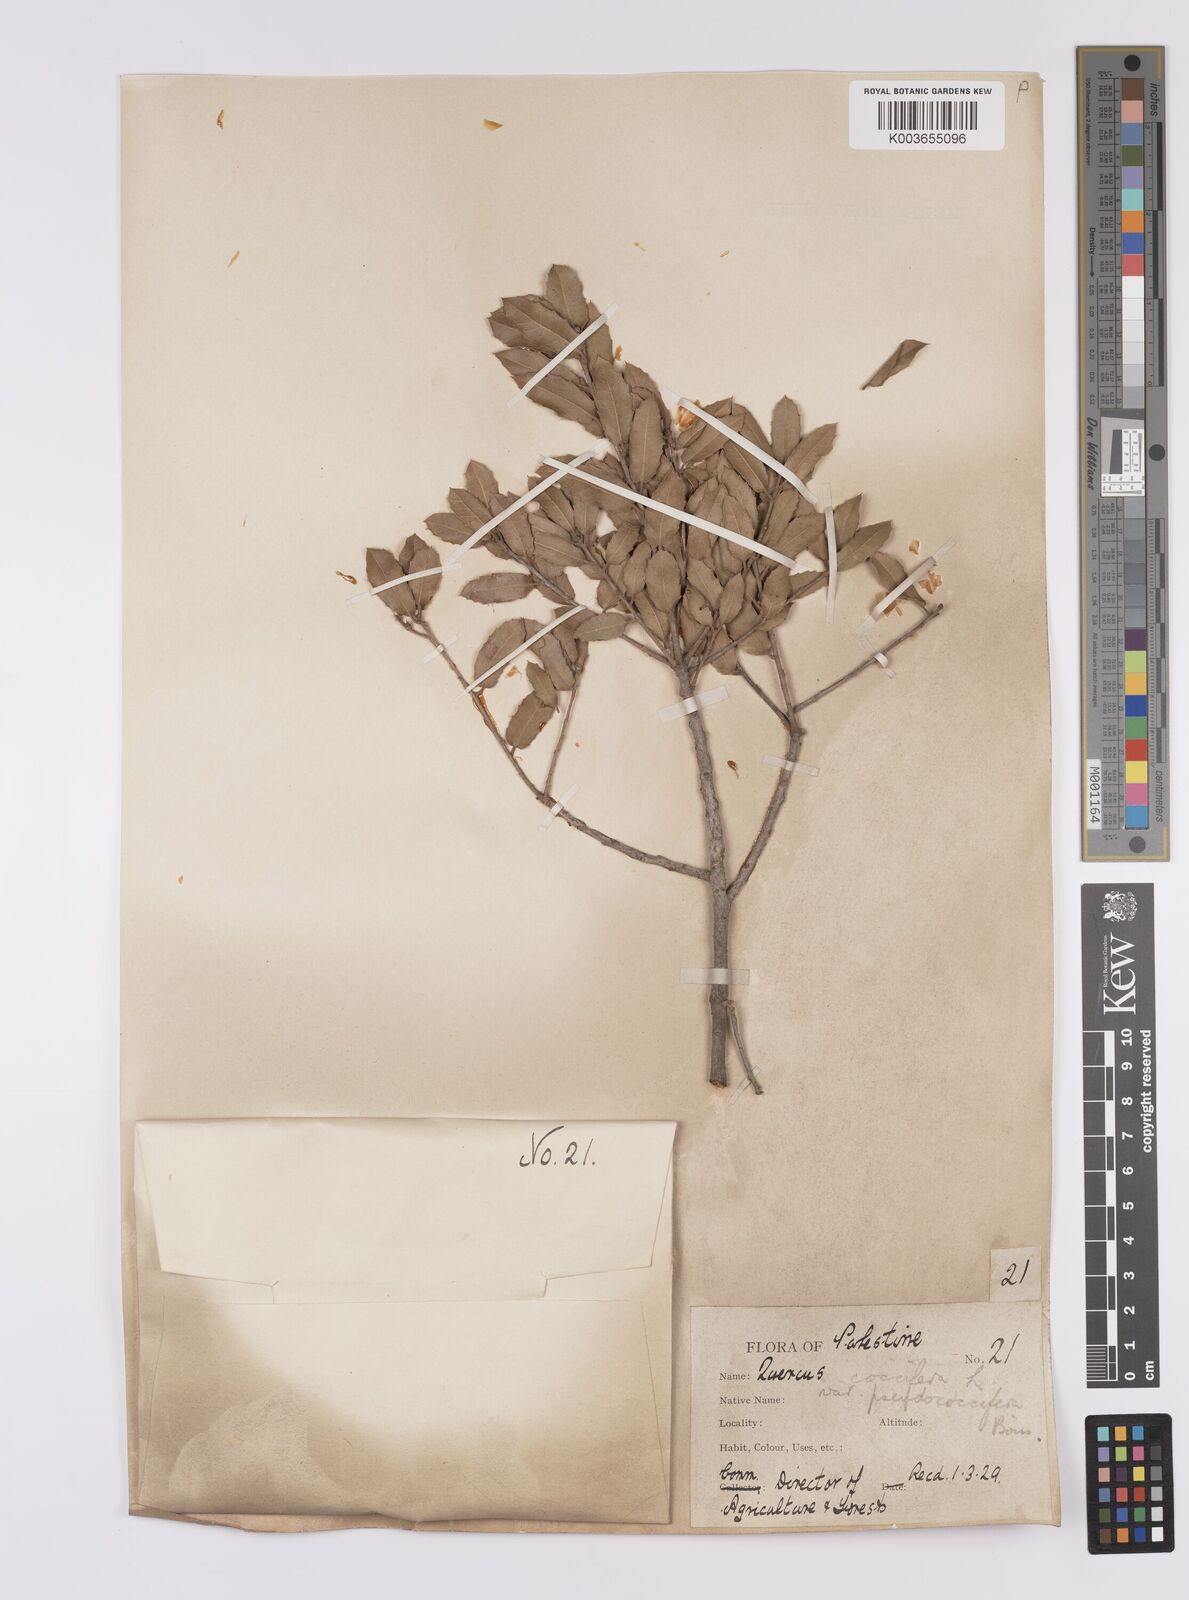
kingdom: Plantae
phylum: Tracheophyta
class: Magnoliopsida
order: Fagales
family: Fagaceae
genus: Quercus
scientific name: Quercus coccifera
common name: Kermes oak
